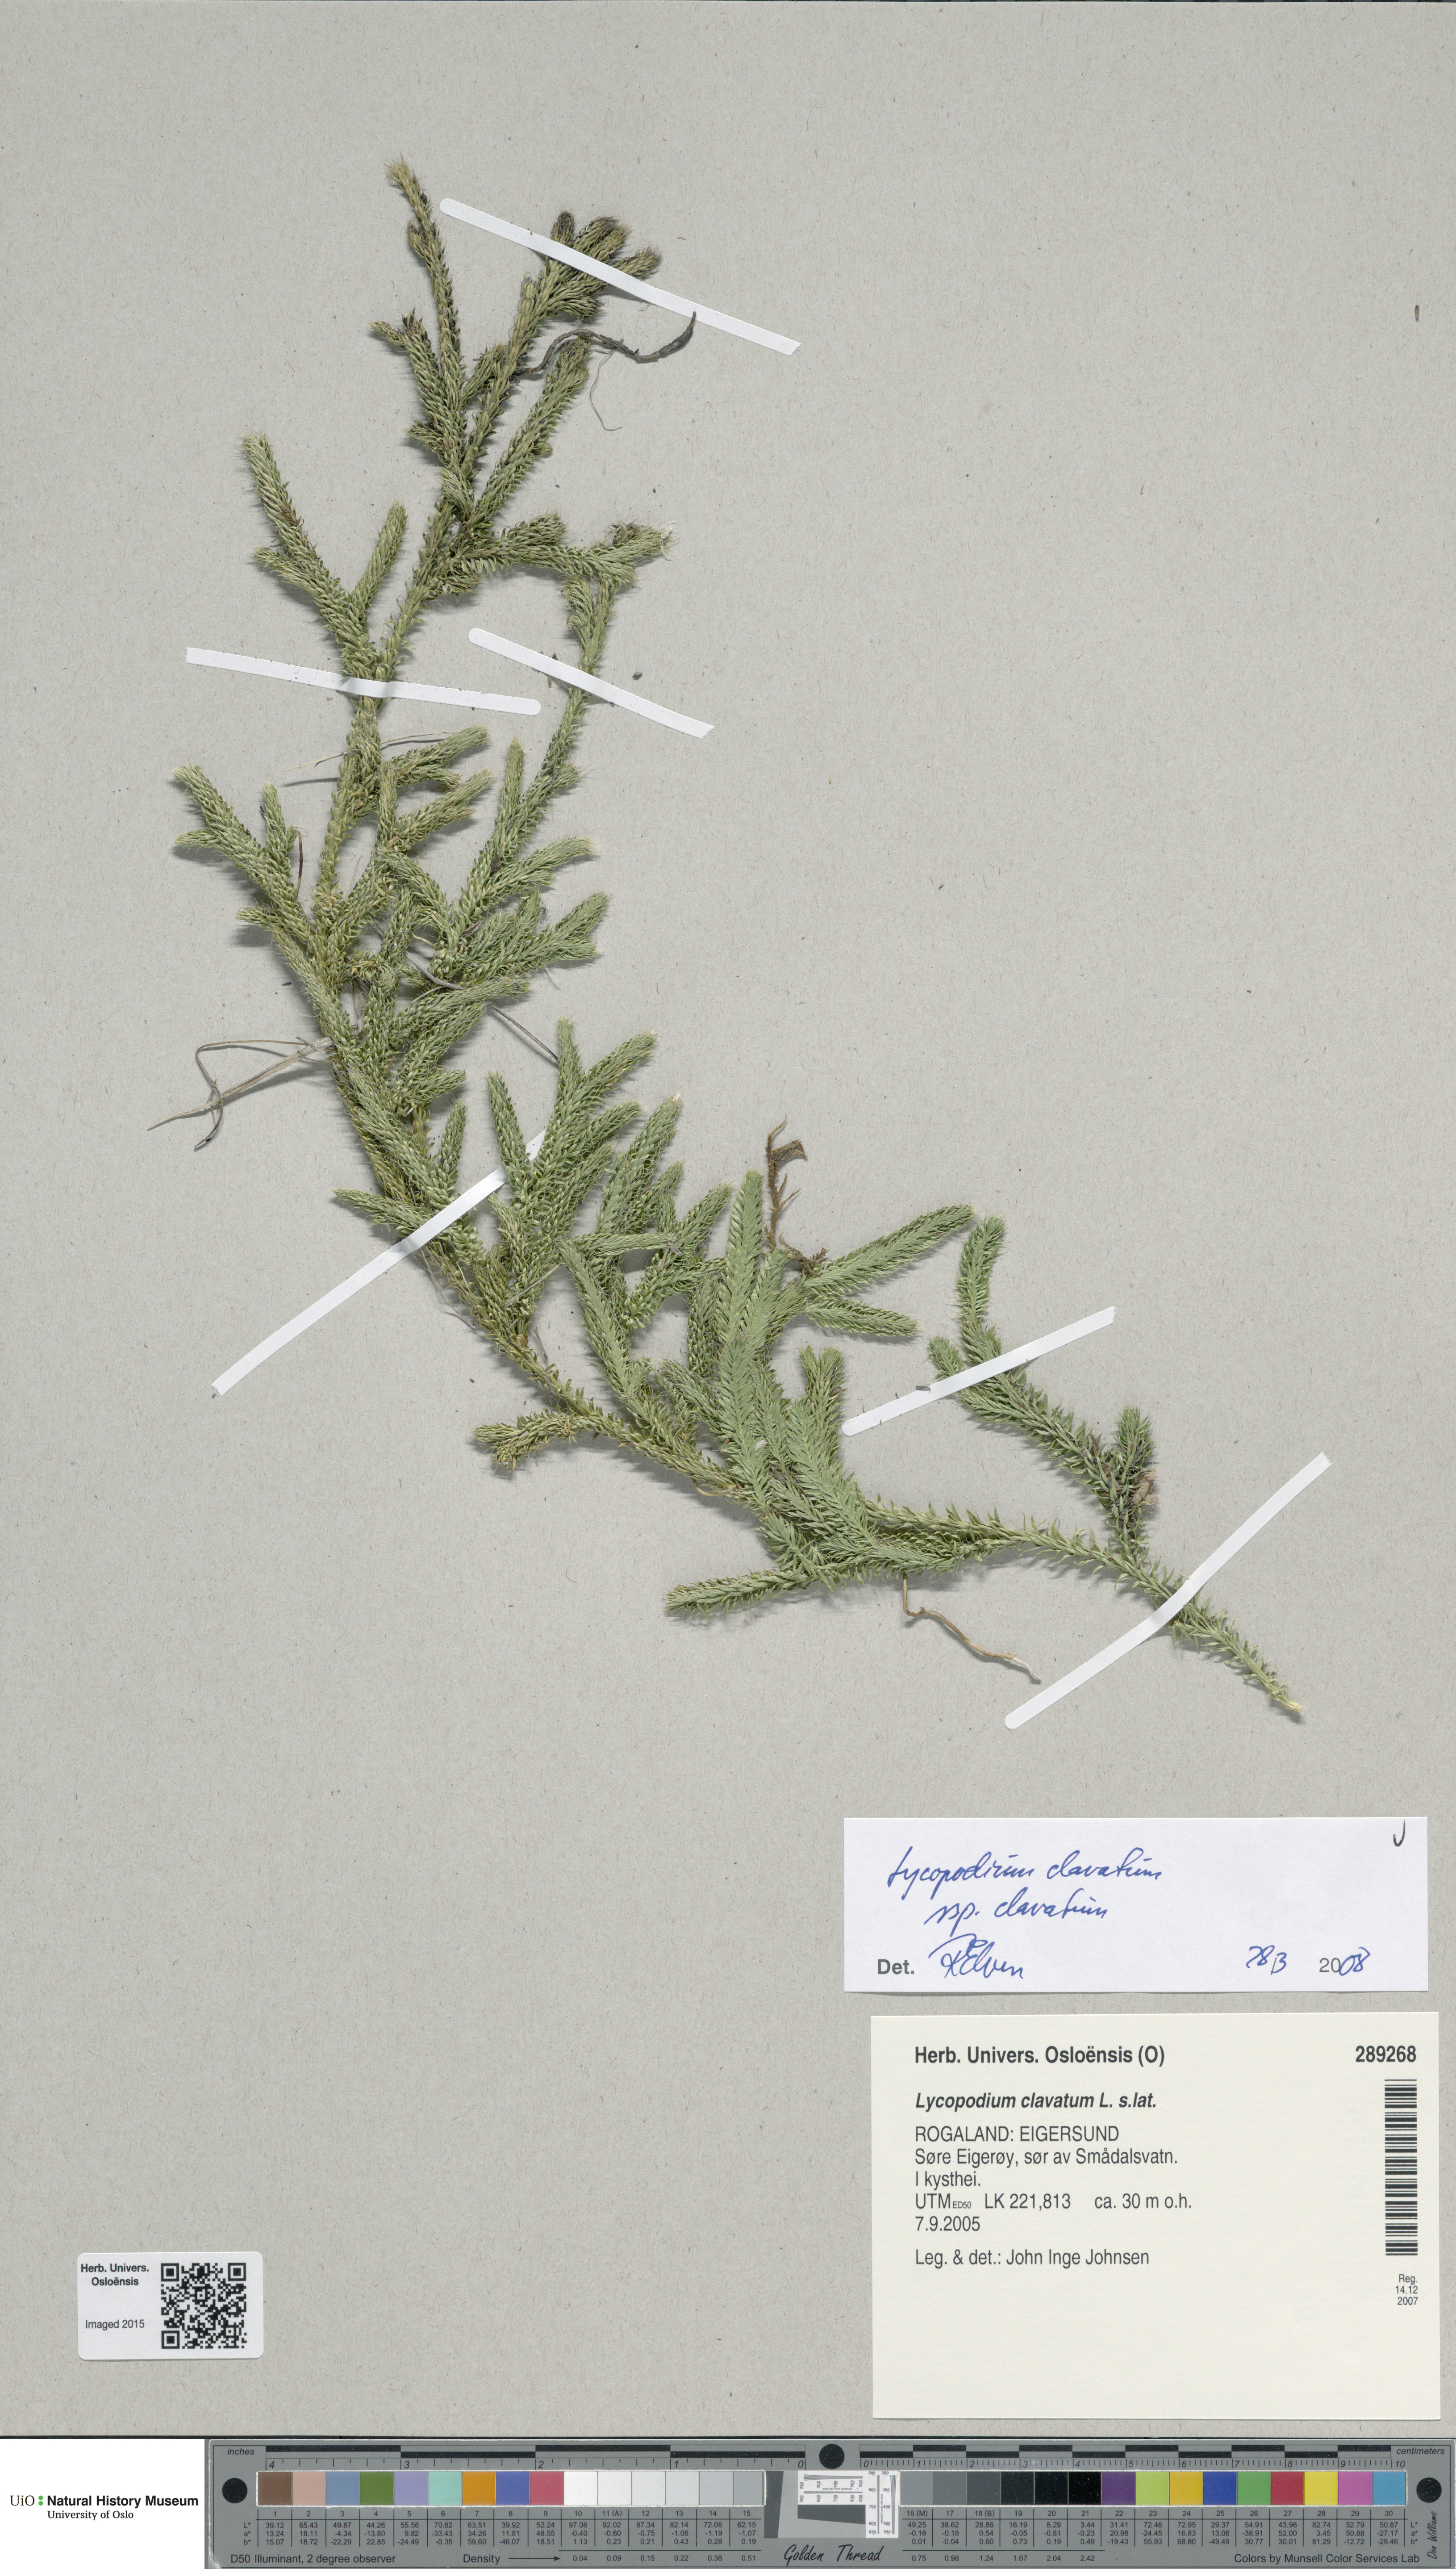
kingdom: Plantae
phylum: Tracheophyta
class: Lycopodiopsida
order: Lycopodiales
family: Lycopodiaceae
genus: Lycopodium
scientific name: Lycopodium clavatum
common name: Stag's-horn clubmoss
